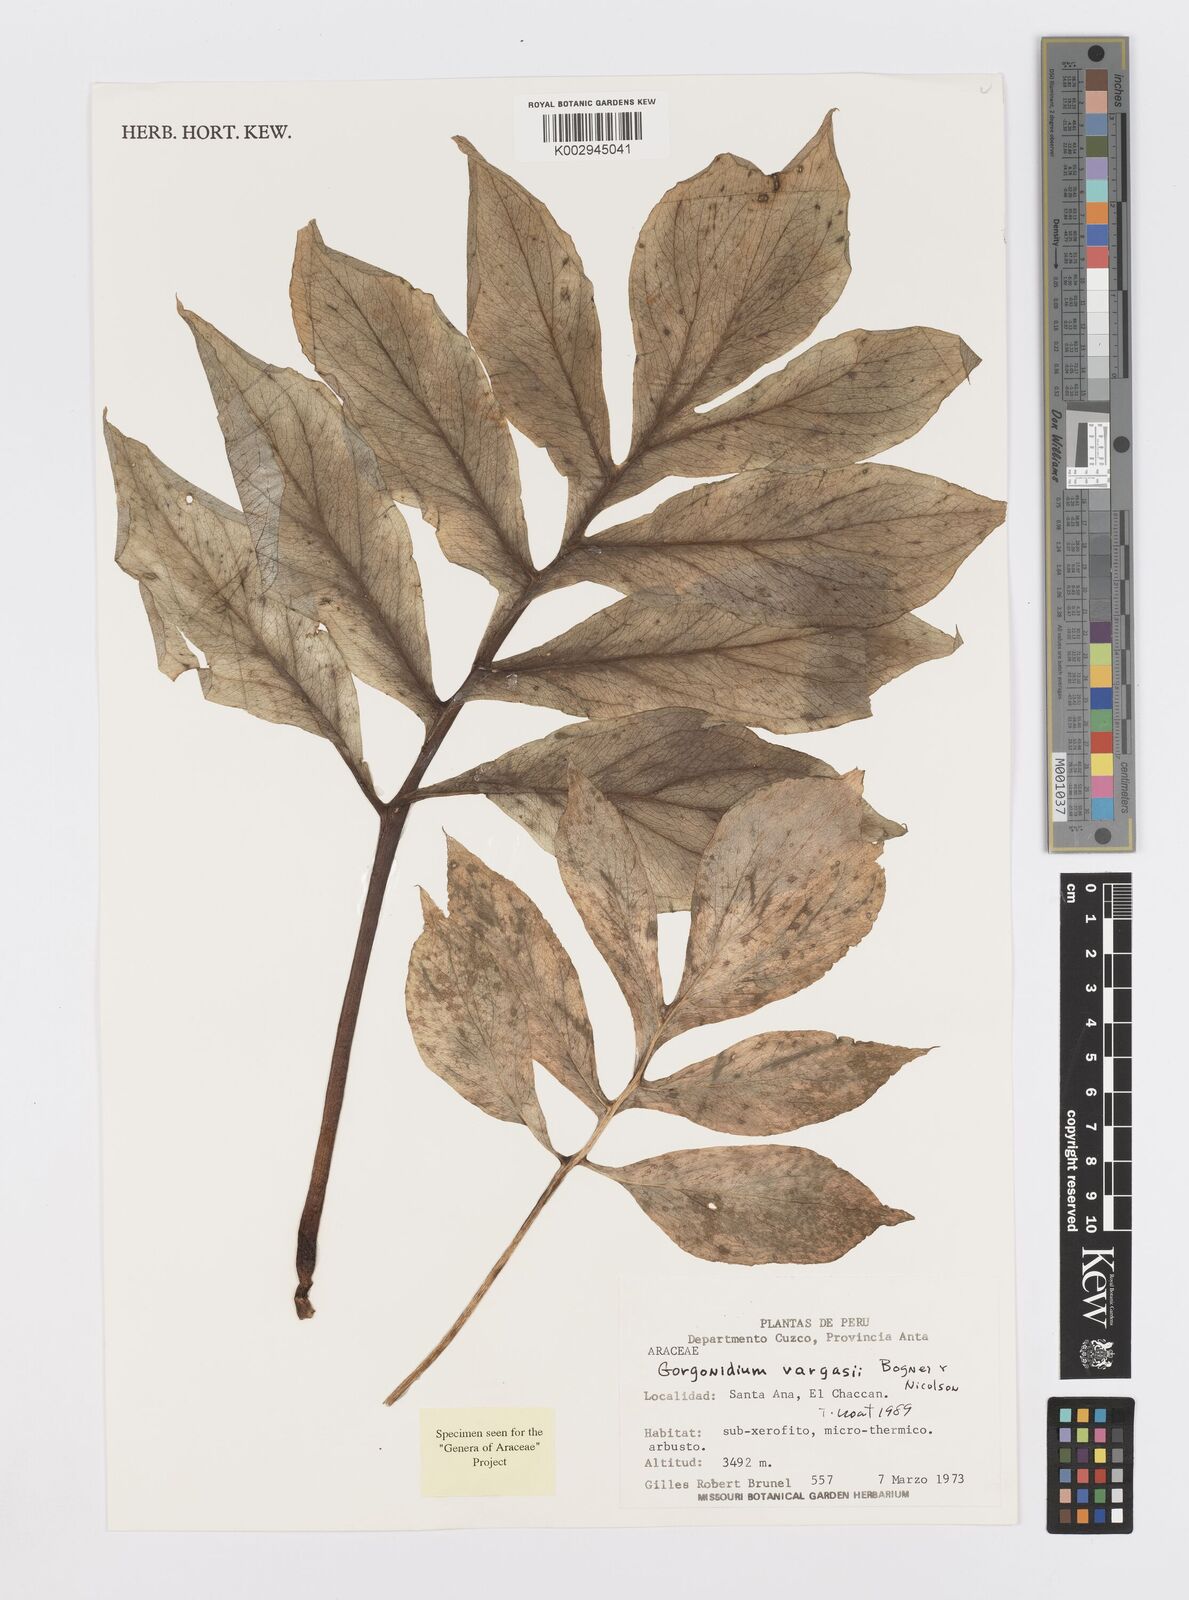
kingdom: Plantae
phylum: Tracheophyta
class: Liliopsida
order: Alismatales
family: Araceae
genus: Gorgonidium
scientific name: Gorgonidium vargasii
